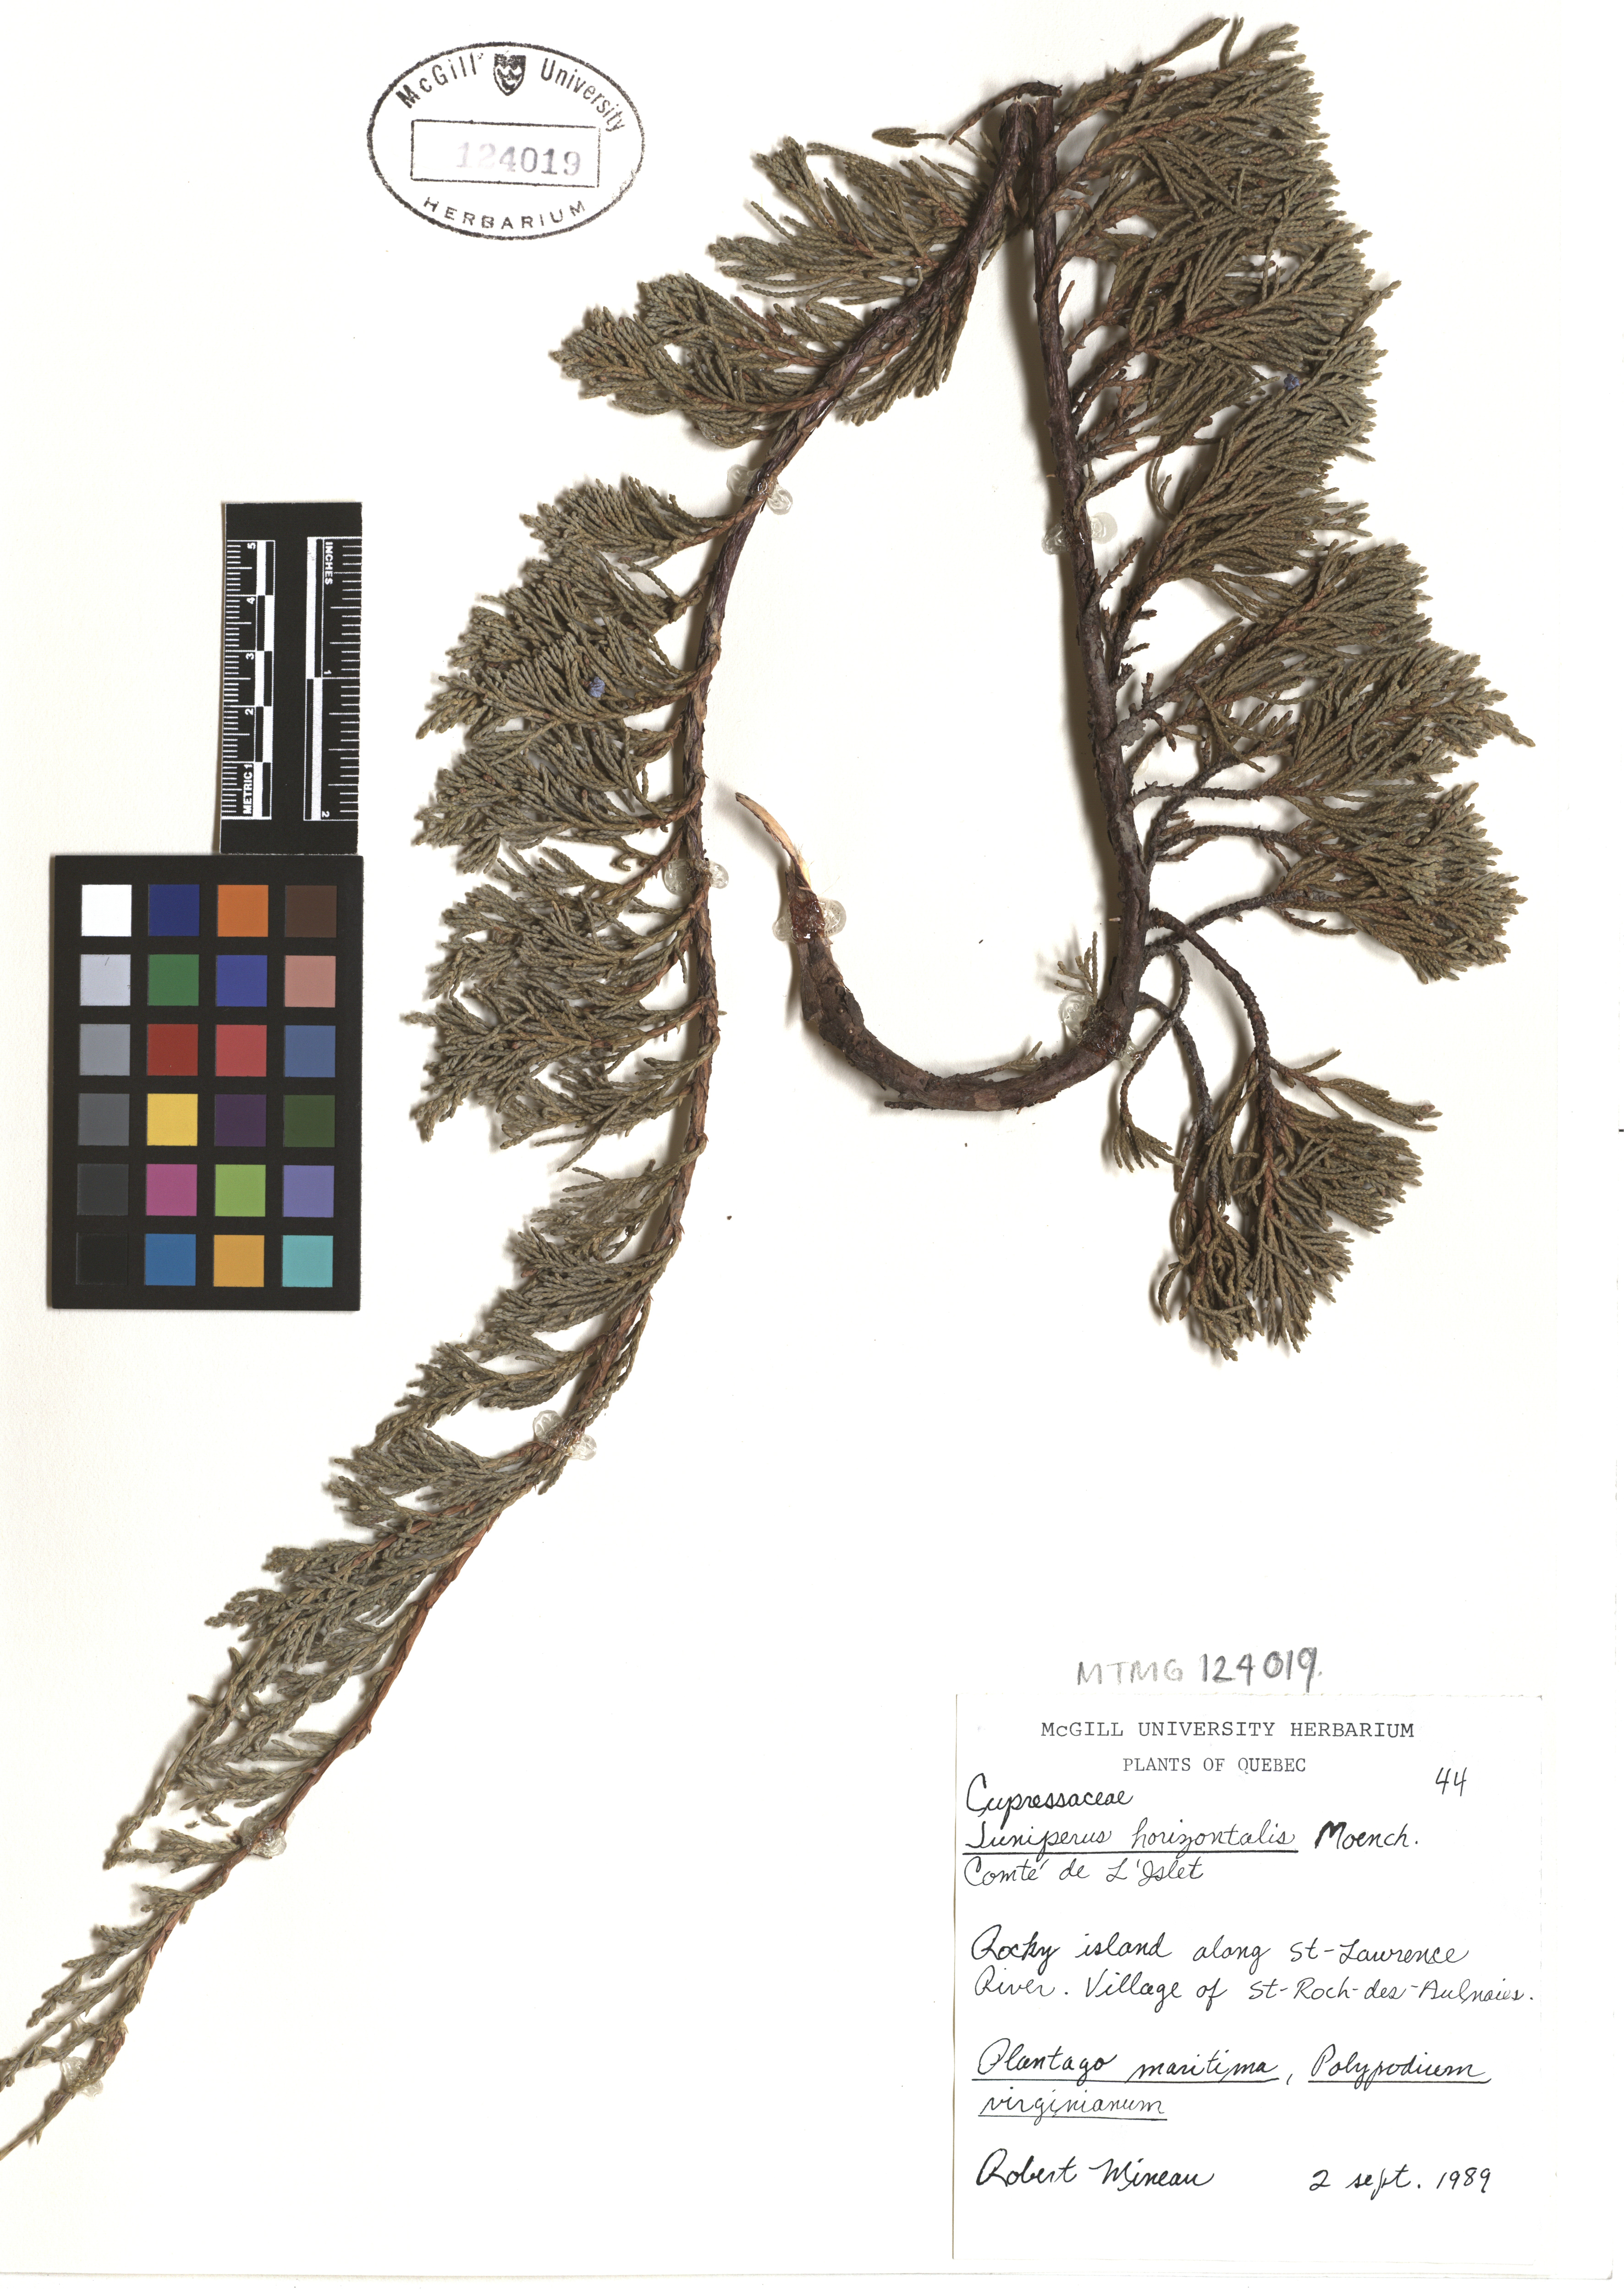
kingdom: Plantae
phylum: Tracheophyta
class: Pinopsida
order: Pinales
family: Cupressaceae
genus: Juniperus
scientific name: Juniperus horizontalis
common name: Creeping juniper
